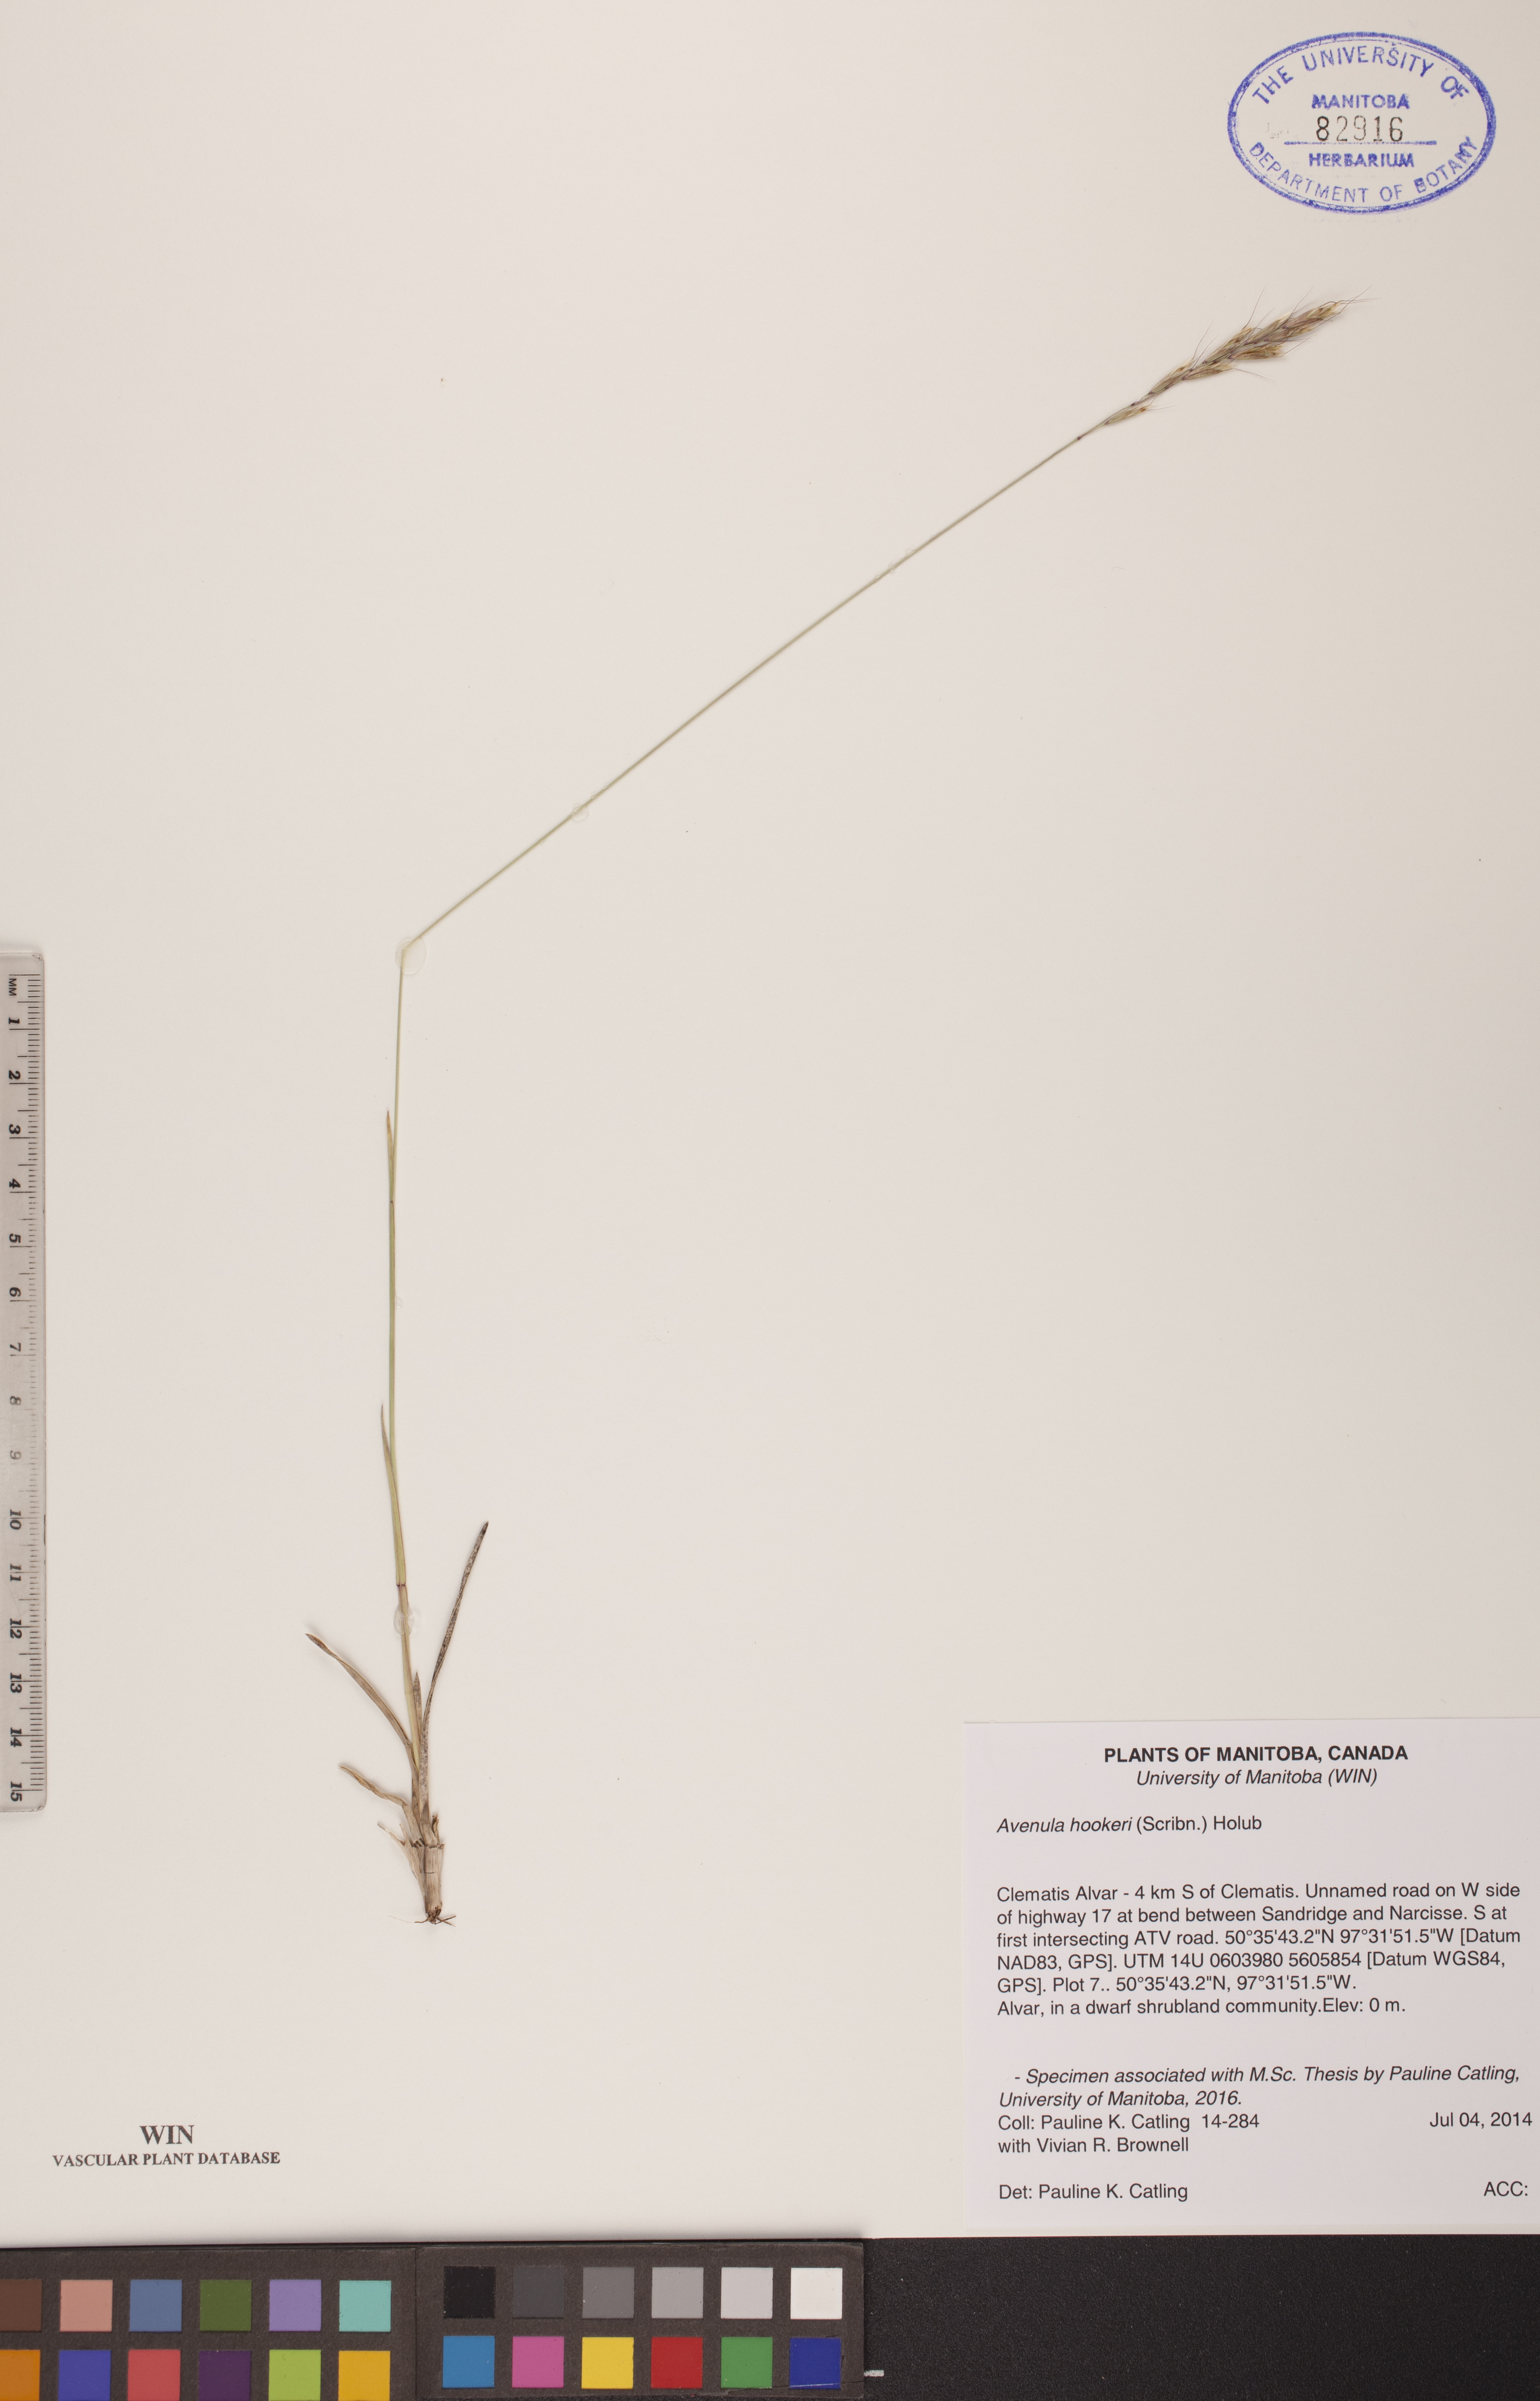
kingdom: Plantae
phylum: Tracheophyta
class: Liliopsida
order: Poales
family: Poaceae
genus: Helictochloa
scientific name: Helictochloa hookeri
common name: Hooker's alpine oatgrass
